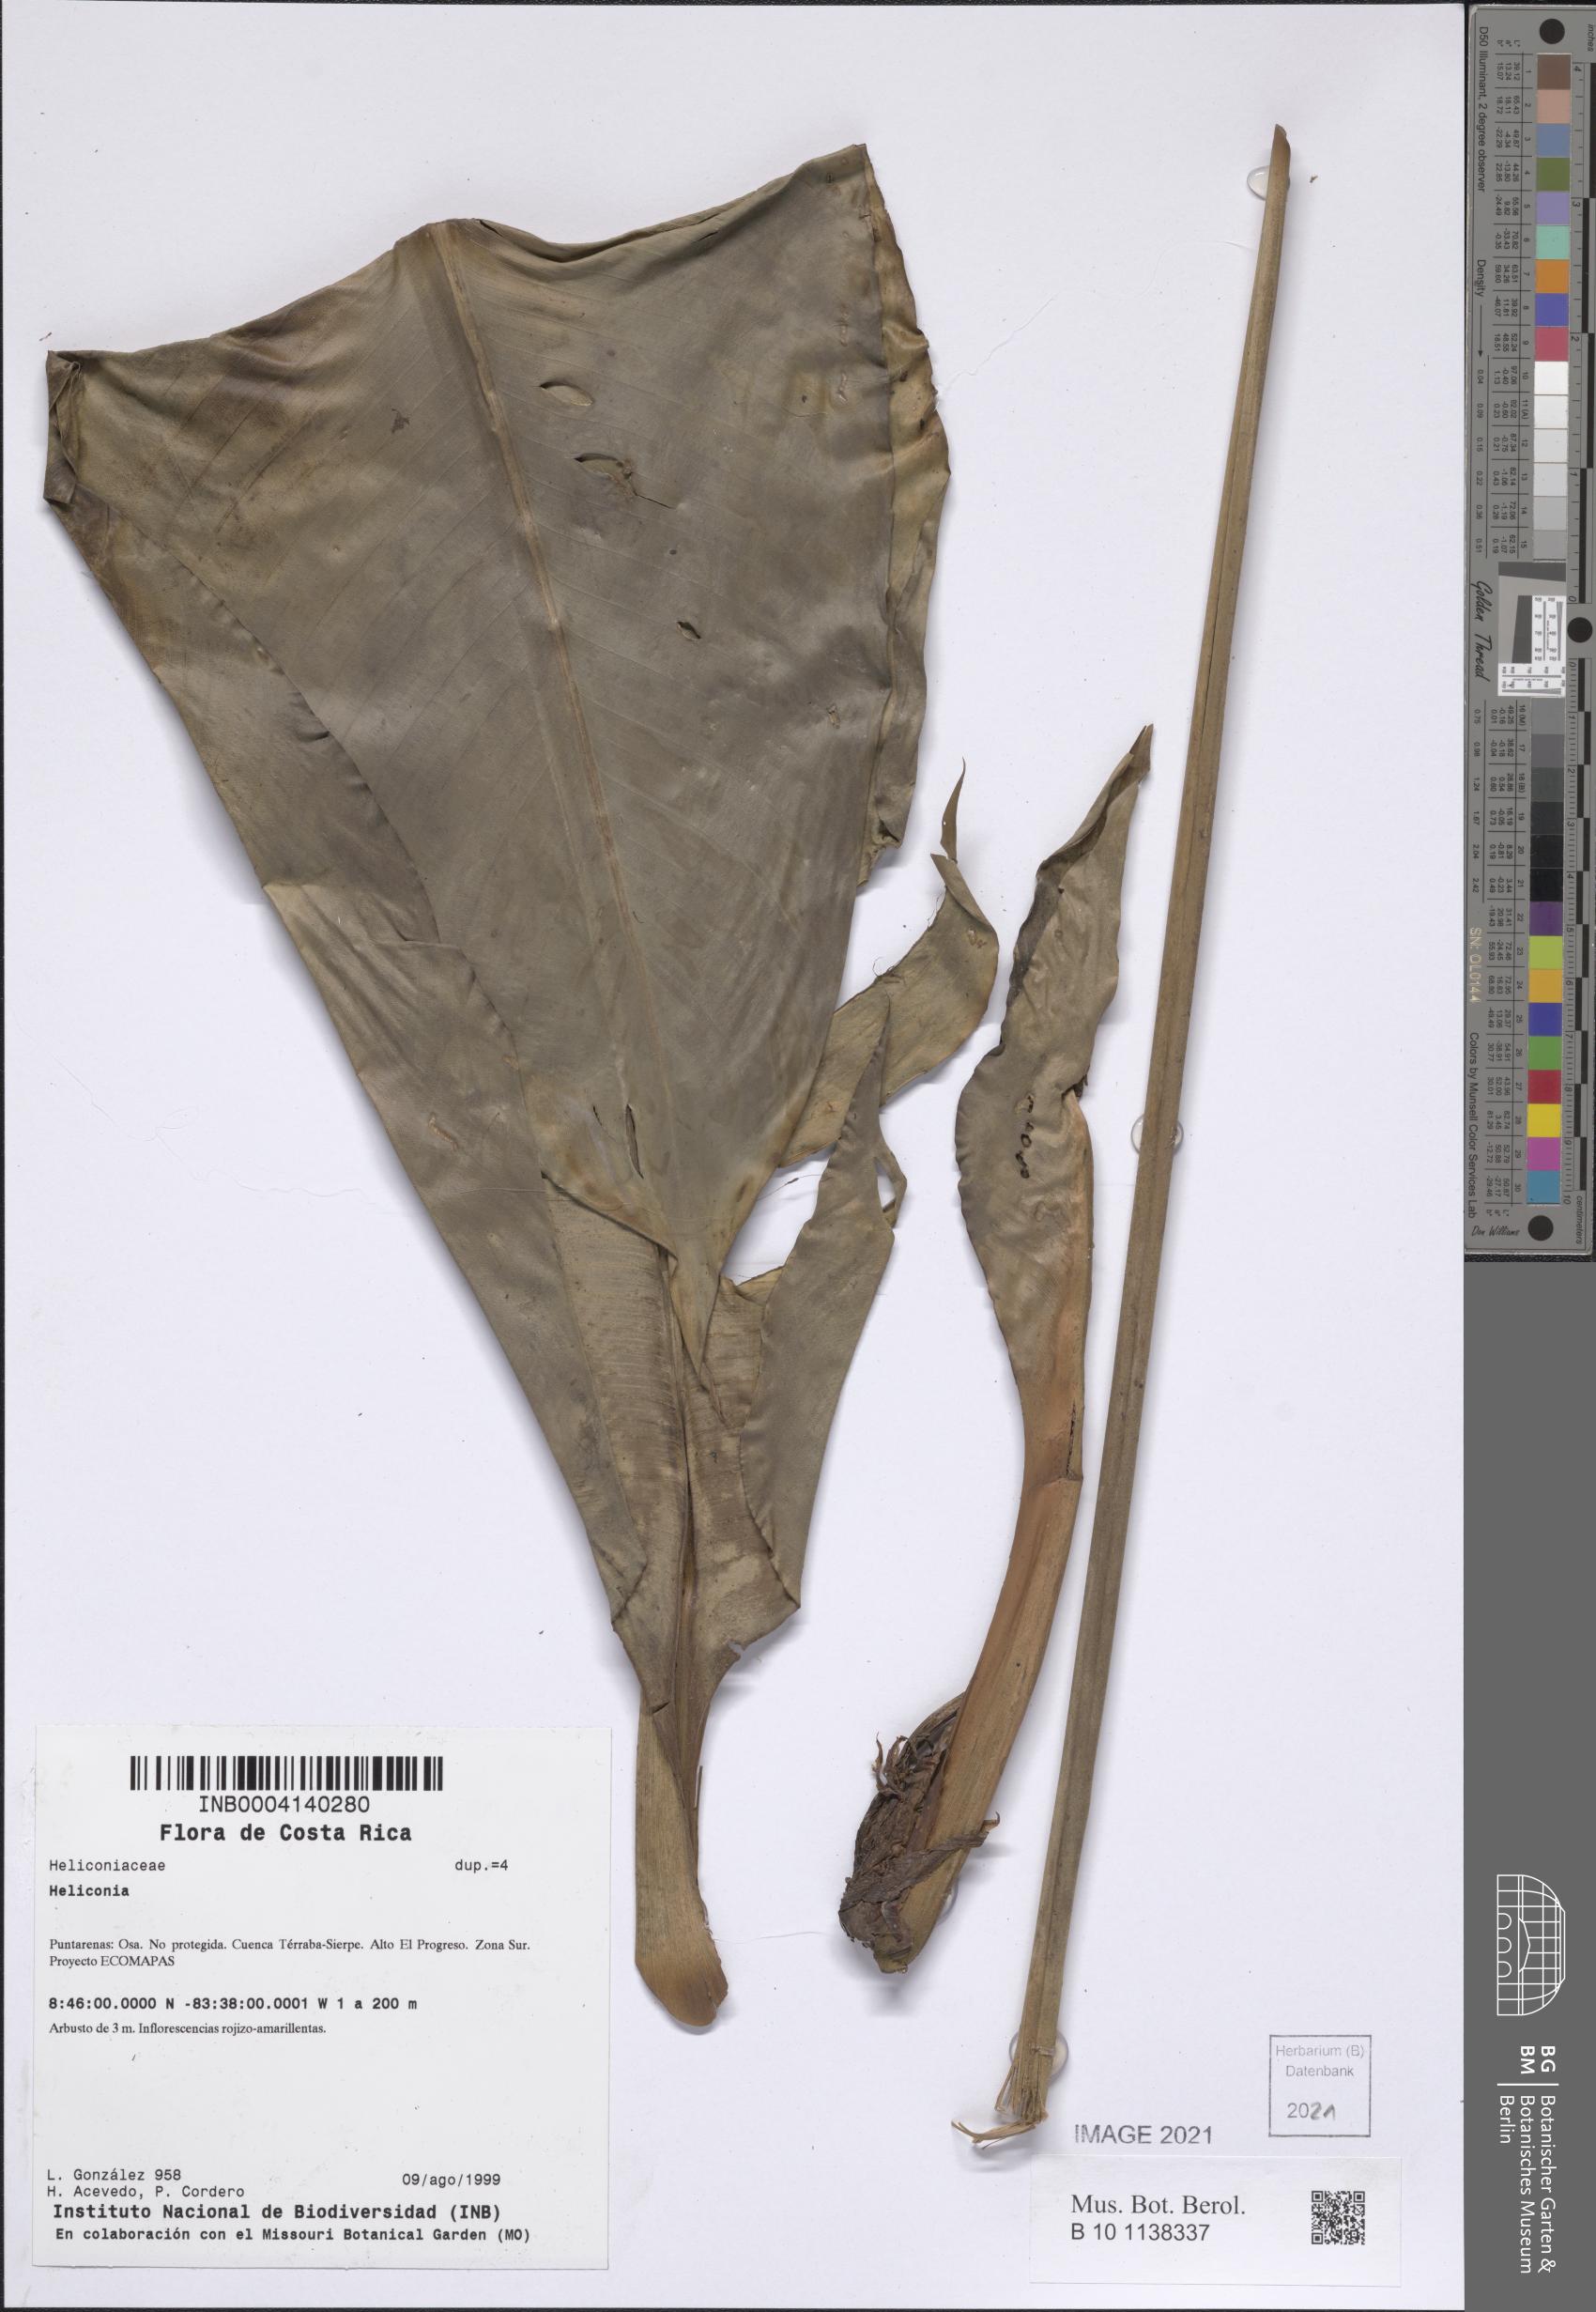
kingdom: Plantae
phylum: Tracheophyta
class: Liliopsida
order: Zingiberales
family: Heliconiaceae
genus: Heliconia
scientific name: Heliconia osaensis
